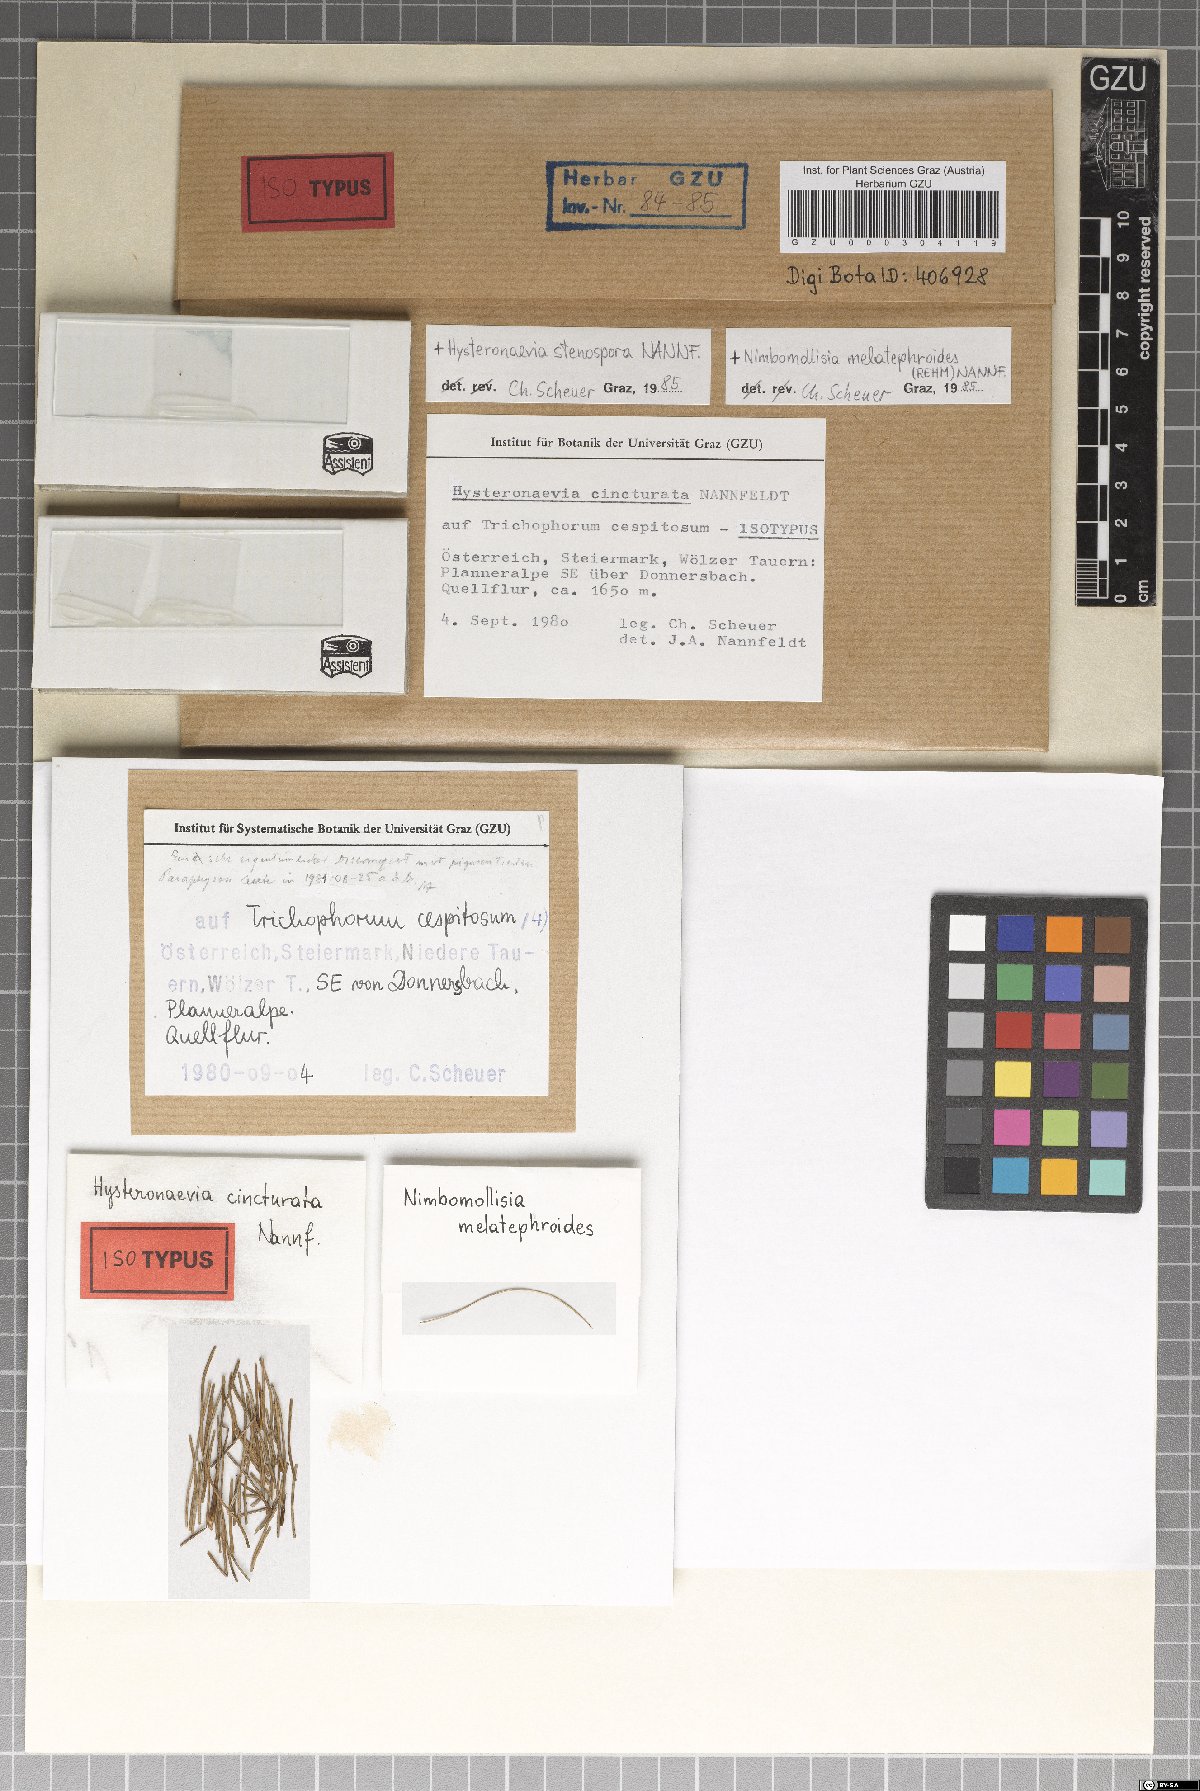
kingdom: Fungi
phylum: Ascomycota
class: Leotiomycetes
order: Helotiales
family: Dermateaceae
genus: Hysteronaevia
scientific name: Hysteronaevia cincturata
